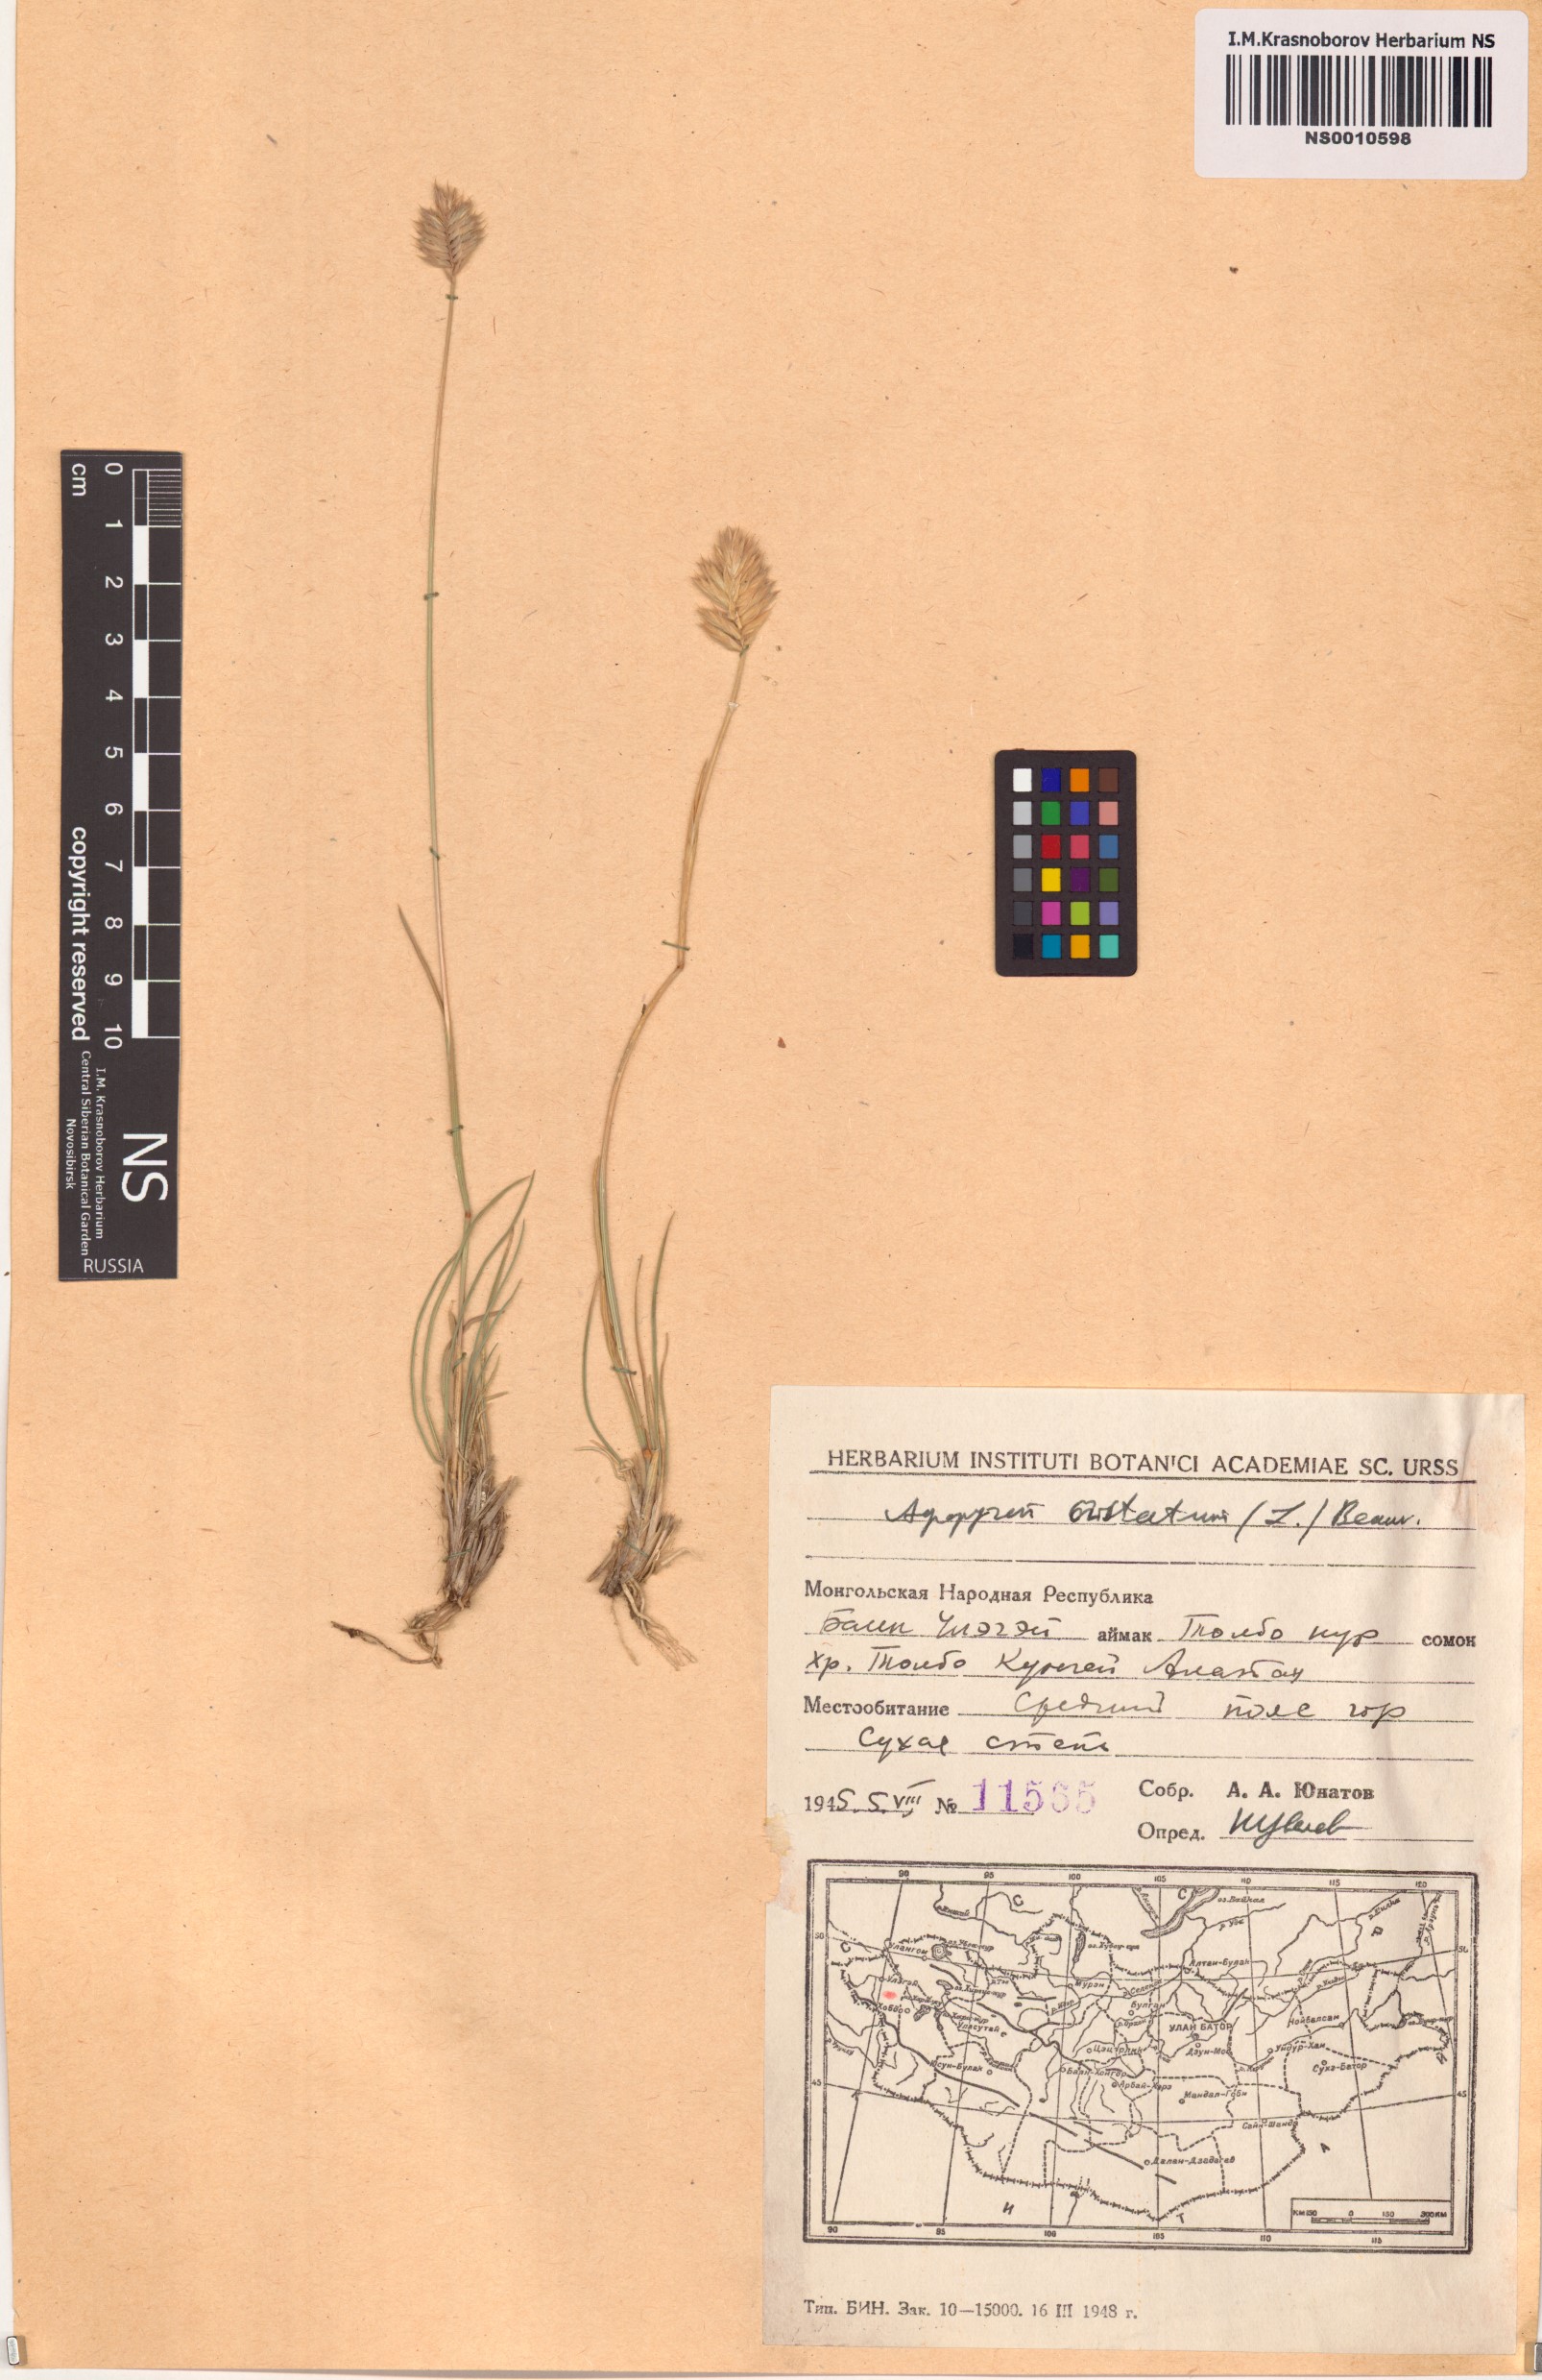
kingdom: Plantae
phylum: Tracheophyta
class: Liliopsida
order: Poales
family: Poaceae
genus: Agropyron
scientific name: Agropyron cristatum
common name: Crested wheatgrass
